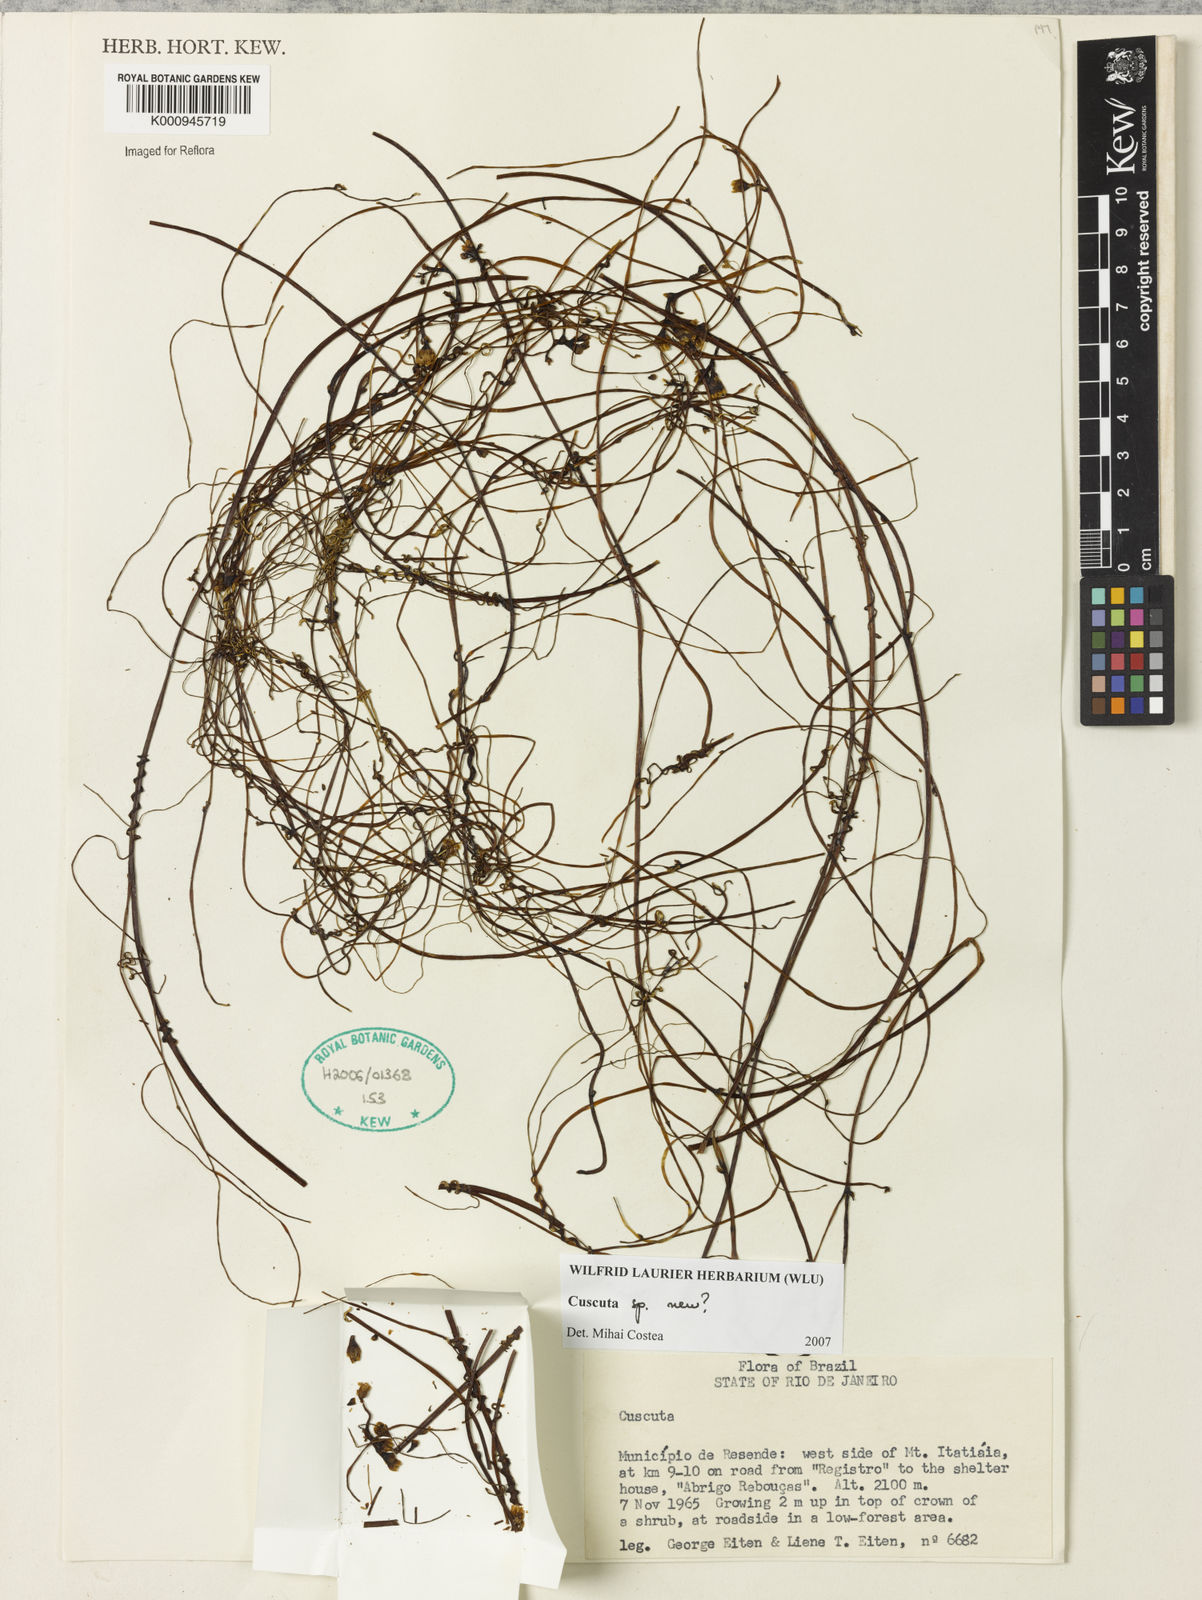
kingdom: Plantae
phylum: Tracheophyta
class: Magnoliopsida
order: Solanales
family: Convolvulaceae
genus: Cuscuta
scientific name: Cuscuta
